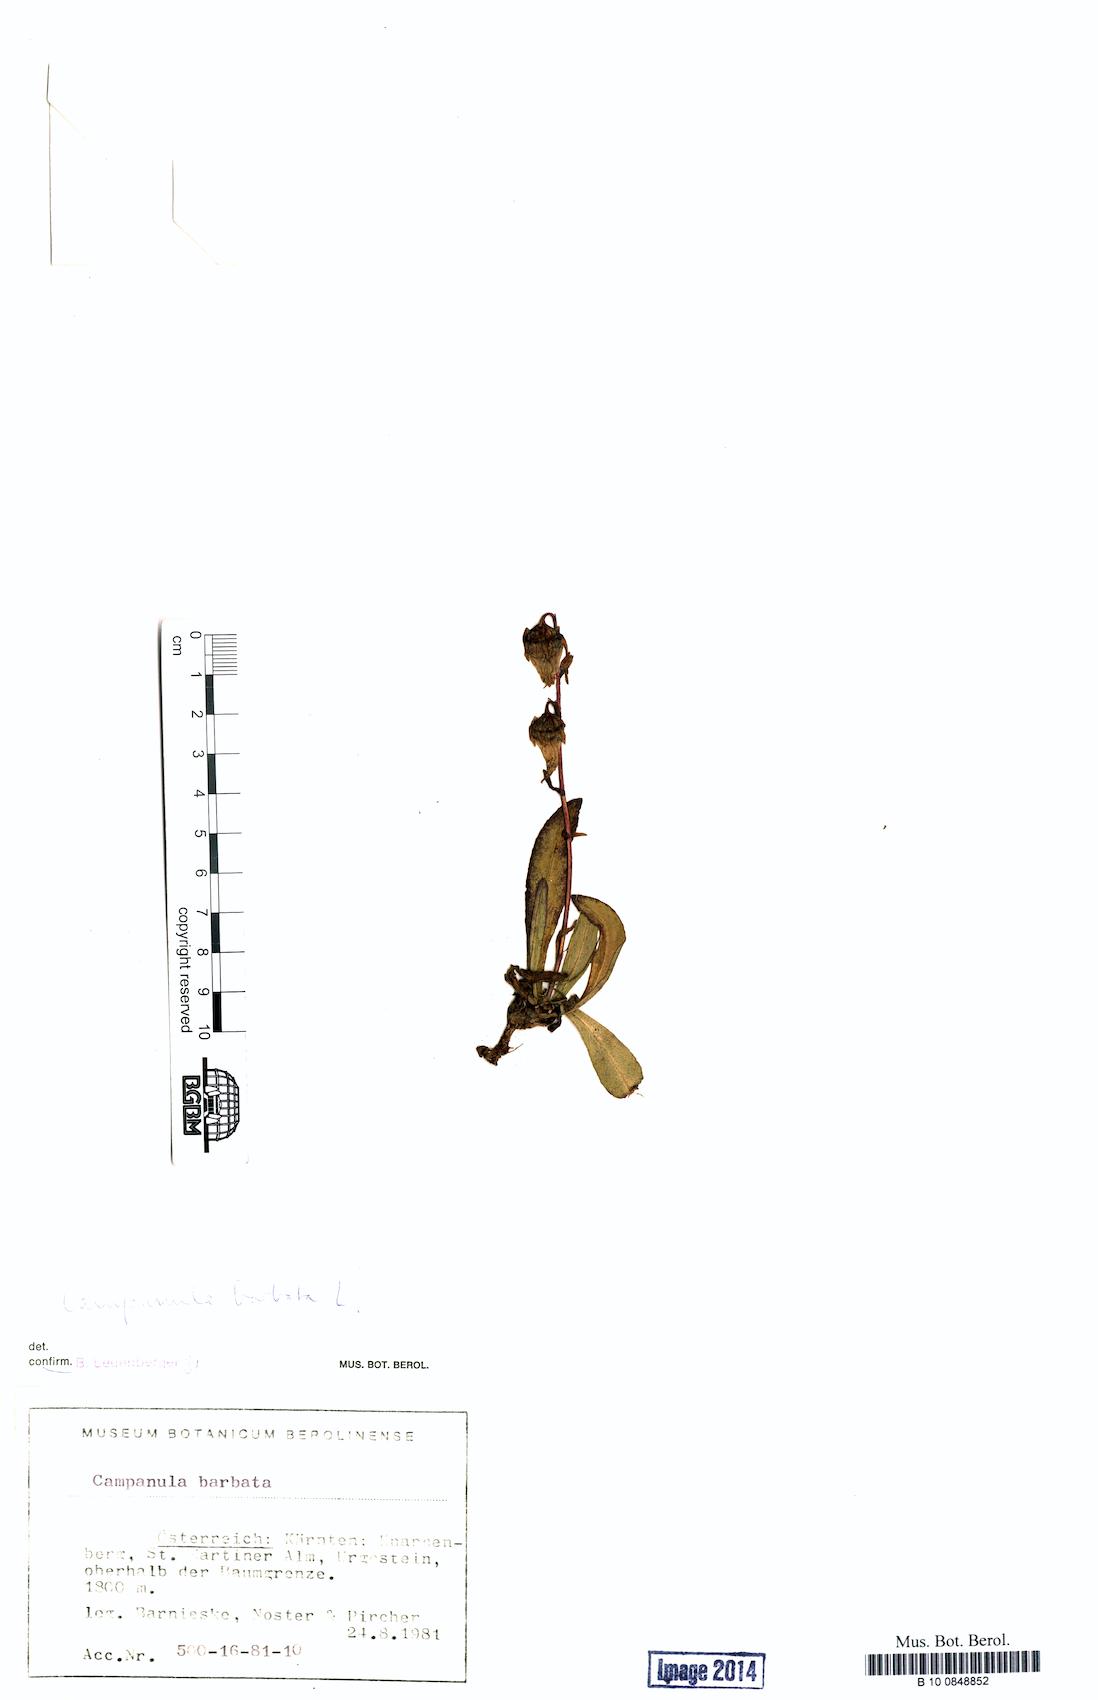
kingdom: Plantae
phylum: Tracheophyta
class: Magnoliopsida
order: Asterales
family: Campanulaceae
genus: Campanula
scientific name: Campanula barbata
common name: Bearded bellflower
